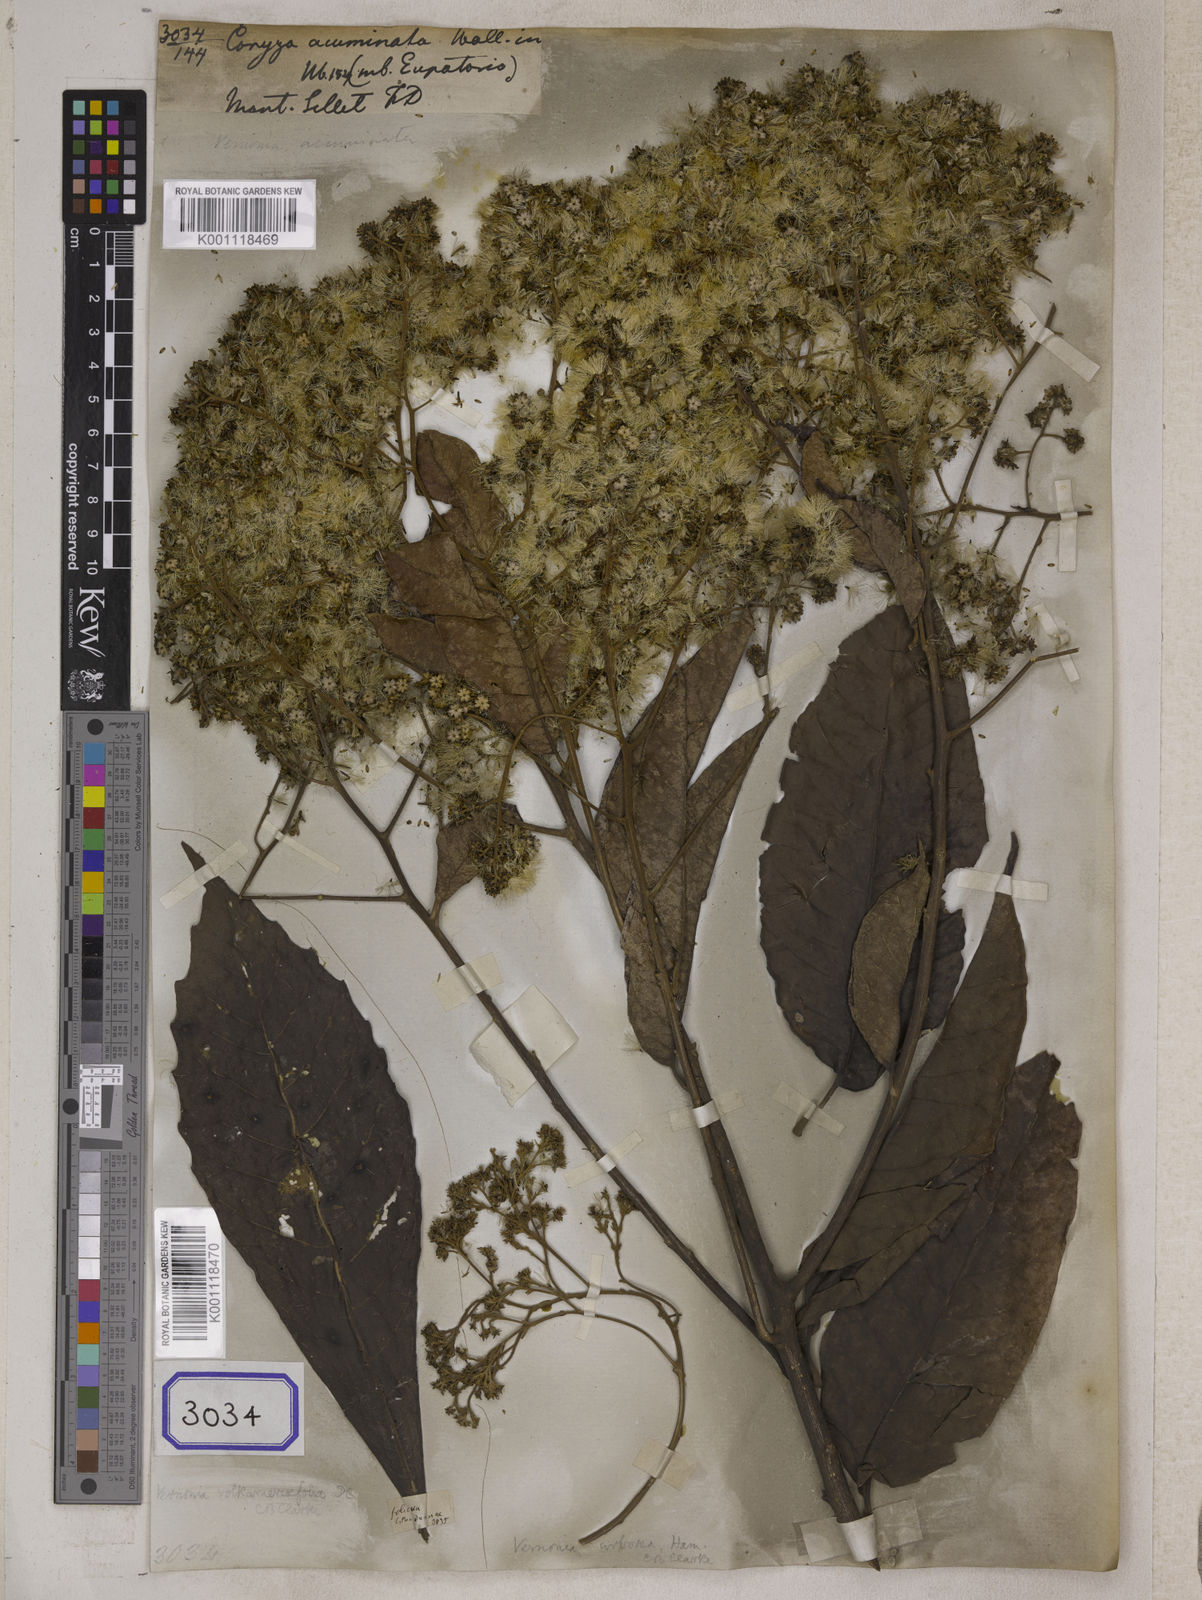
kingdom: Plantae
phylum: Tracheophyta
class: Magnoliopsida
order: Asterales
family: Asteraceae
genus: Strobocalyx
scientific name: Strobocalyx arborea
